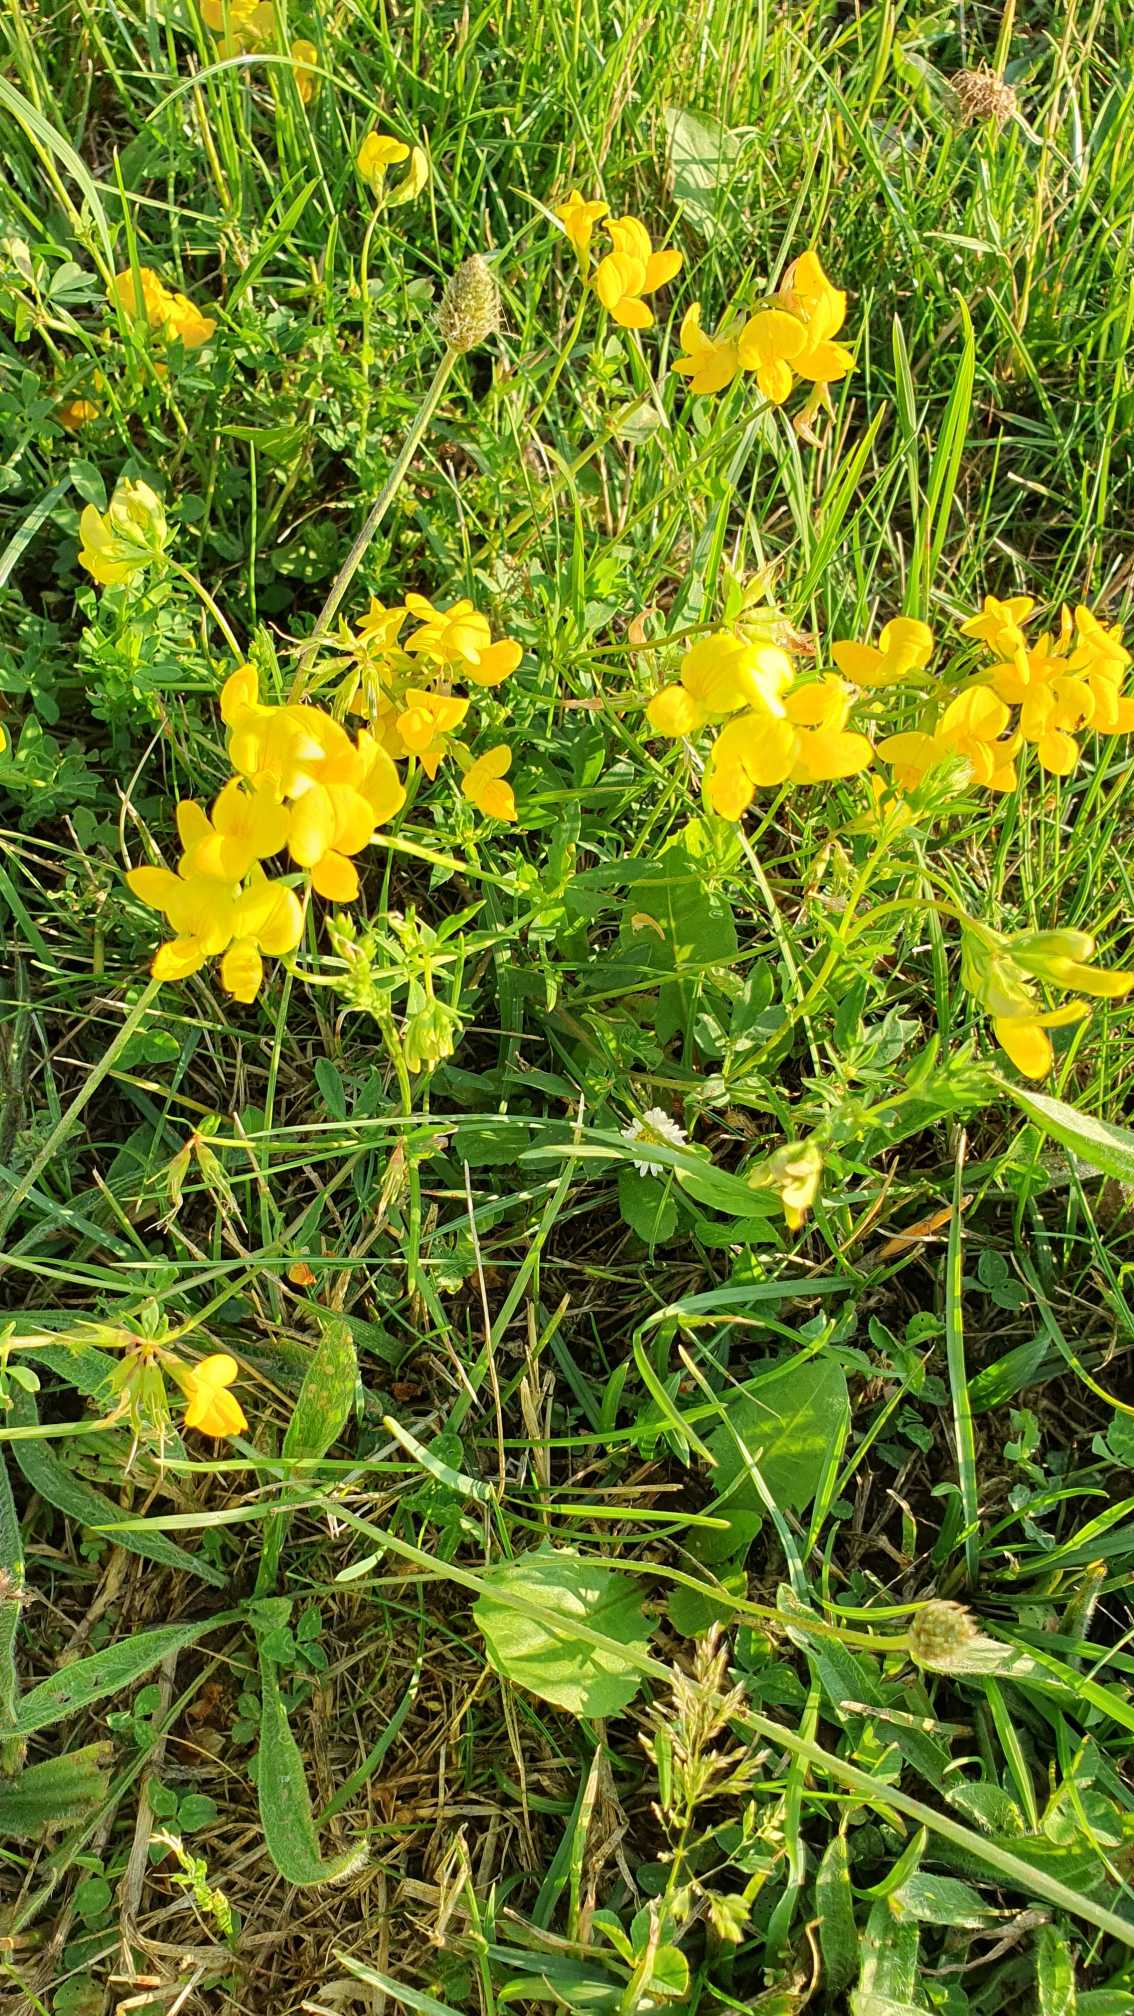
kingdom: Plantae
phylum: Tracheophyta
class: Magnoliopsida
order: Fabales
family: Fabaceae
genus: Lotus
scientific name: Lotus corniculatus
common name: Almindelig kællingetand
